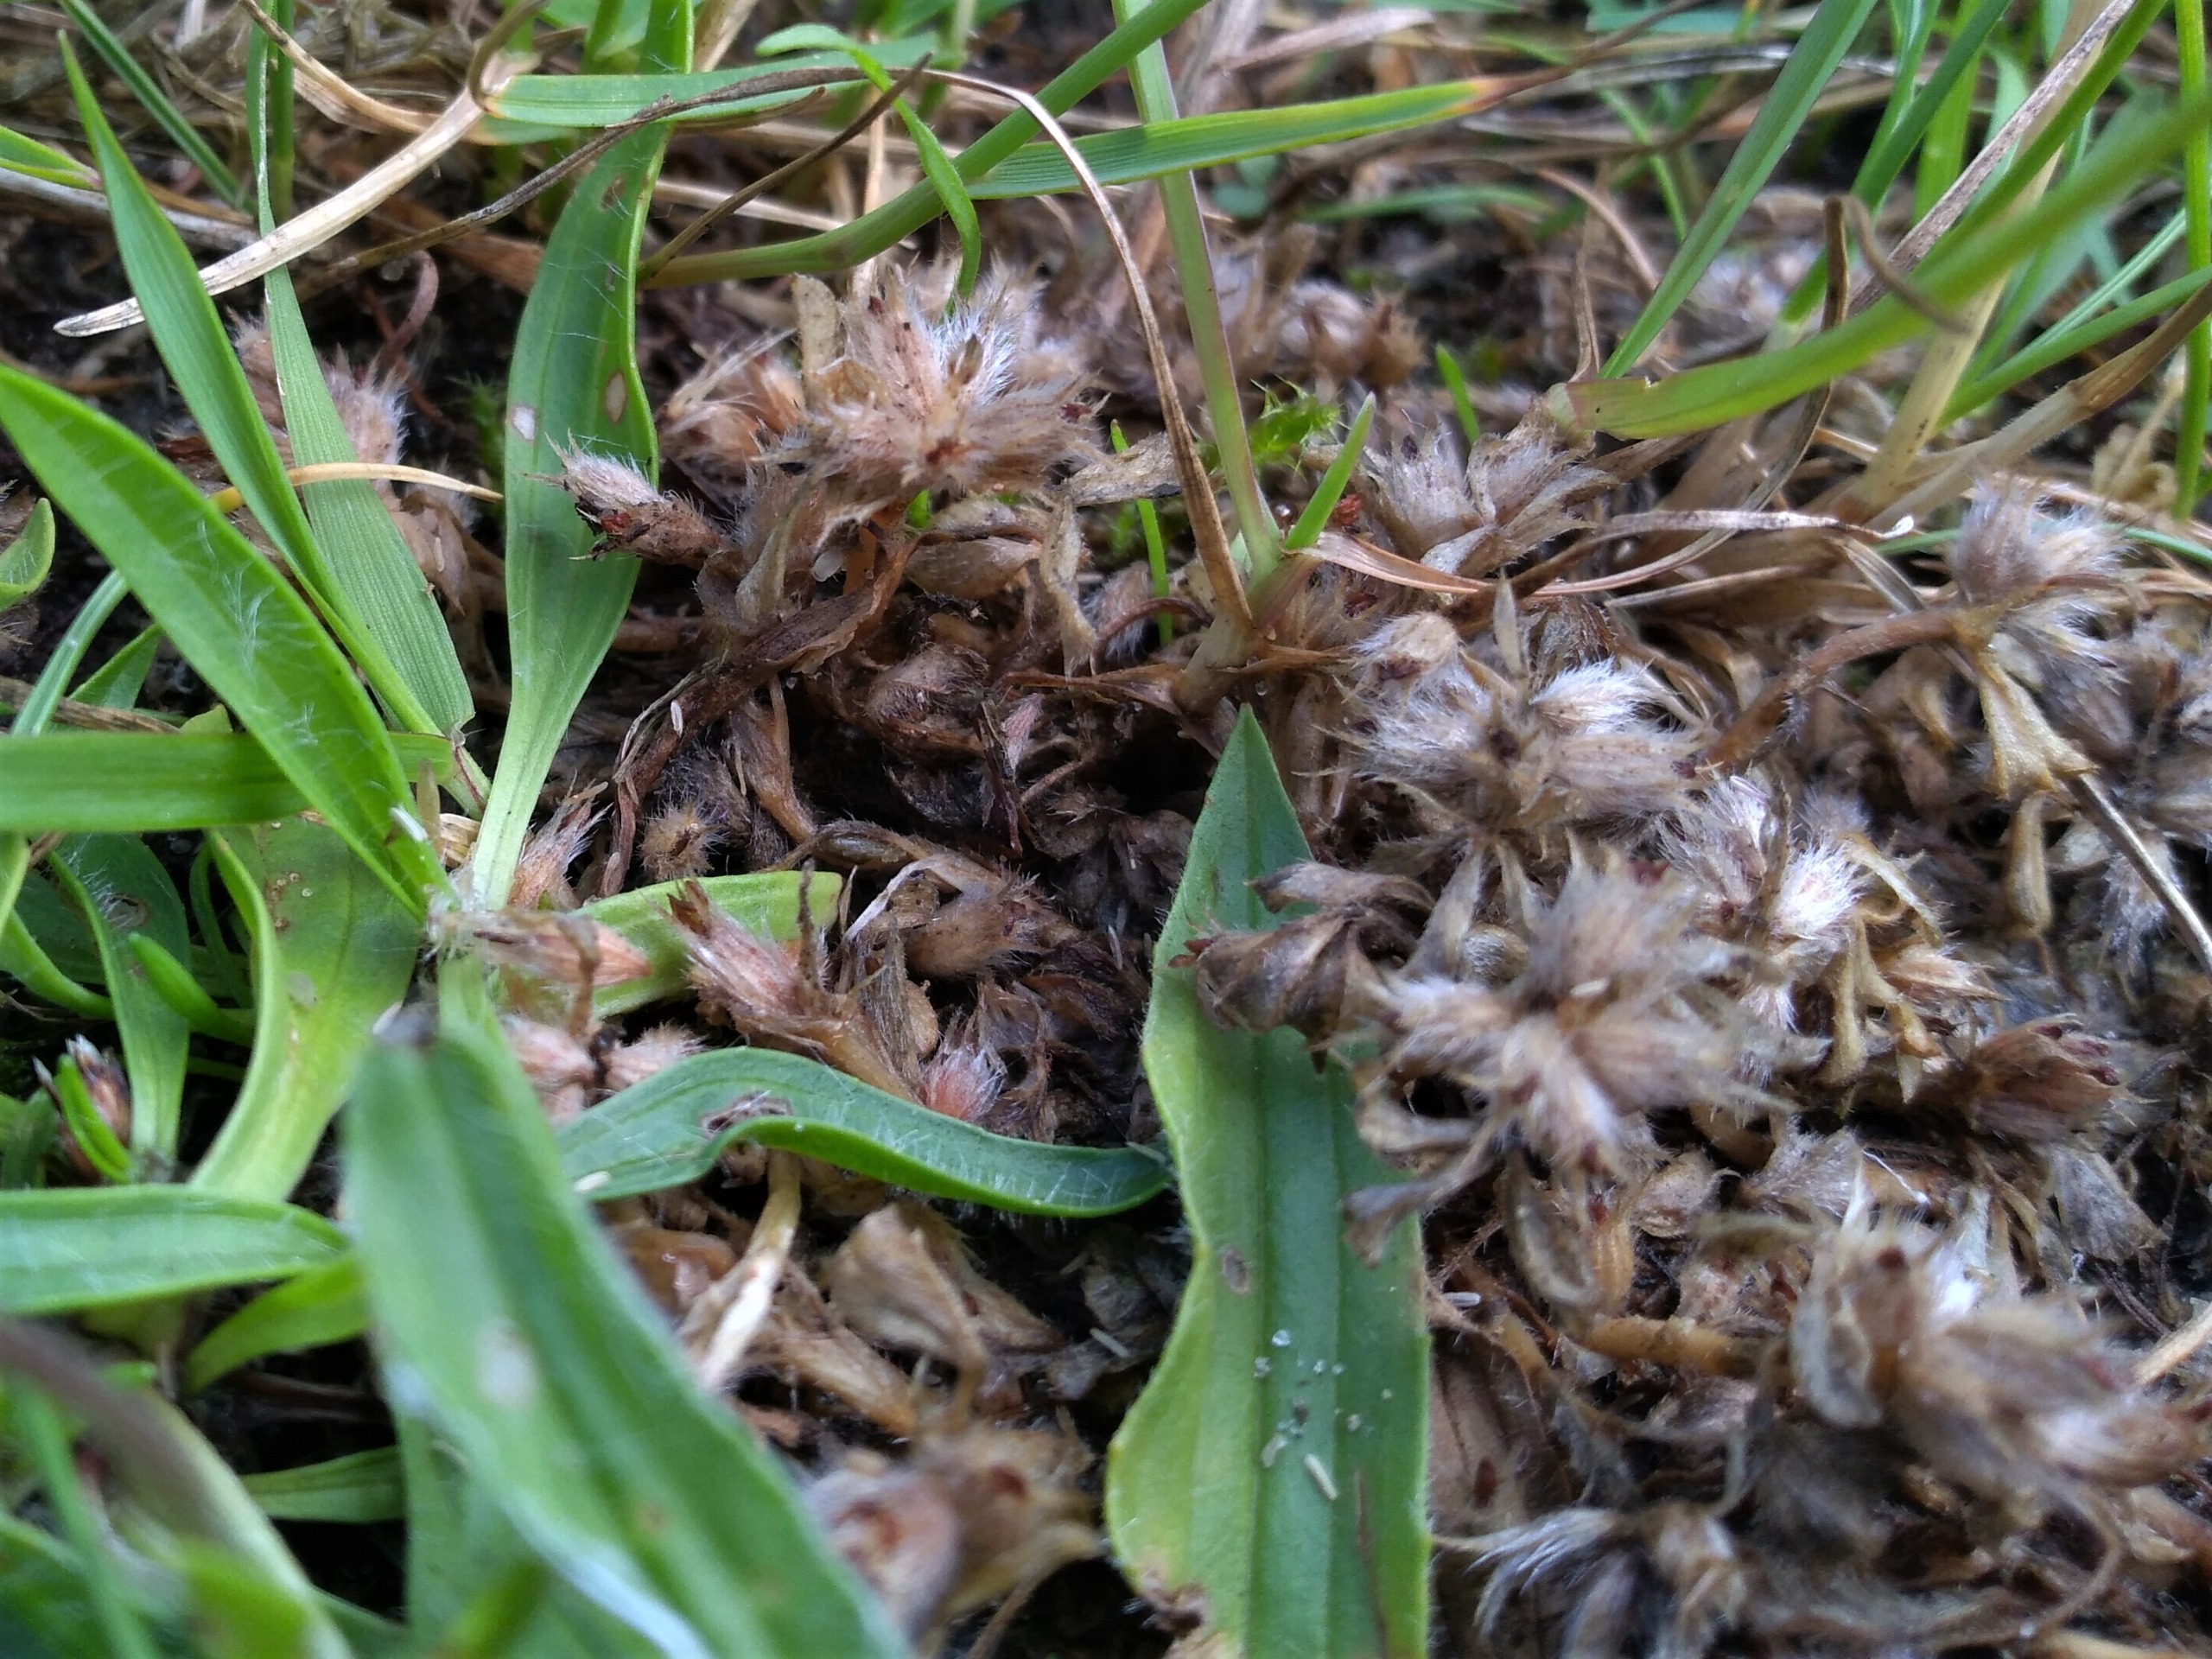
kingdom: Plantae
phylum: Tracheophyta
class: Magnoliopsida
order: Fabales
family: Fabaceae
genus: Trifolium
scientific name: Trifolium striatum
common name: Stribet kløver
